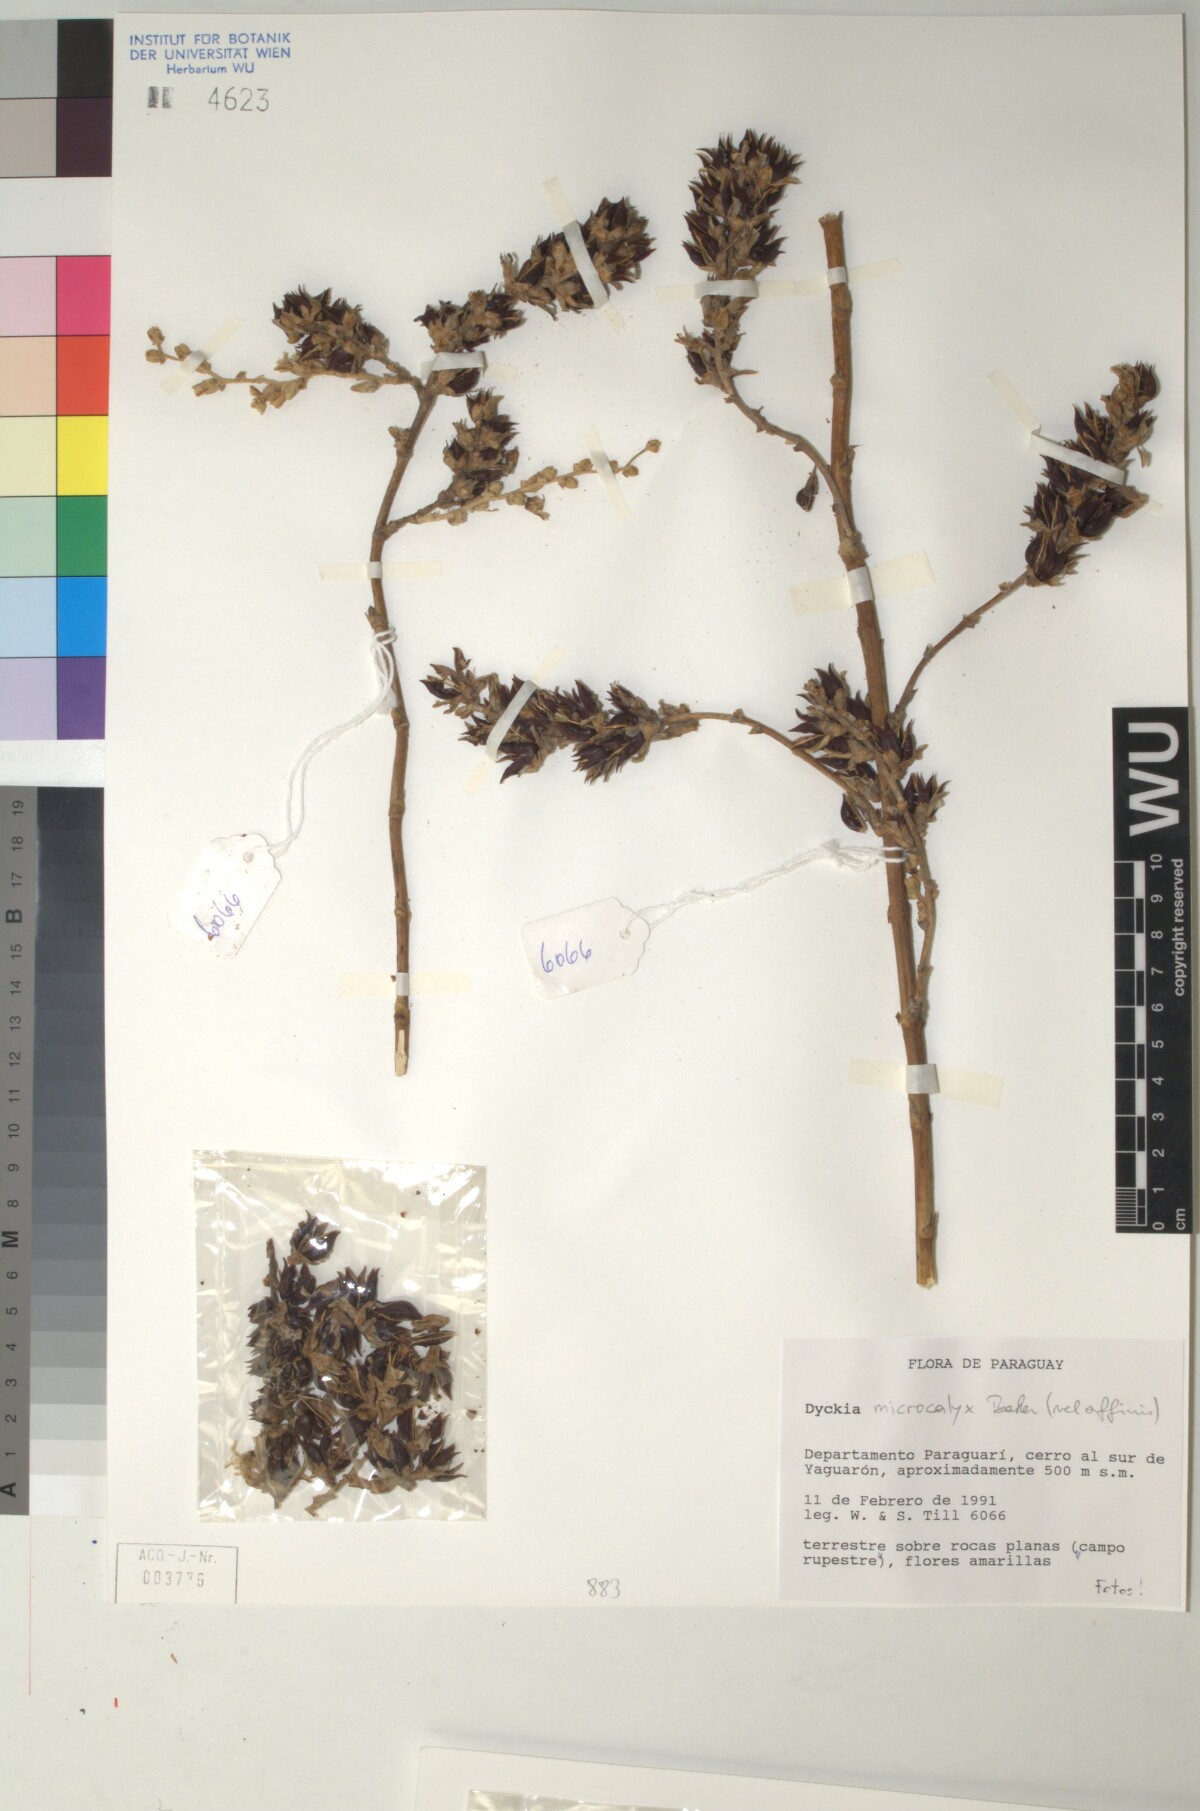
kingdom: Plantae
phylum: Tracheophyta
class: Liliopsida
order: Poales
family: Bromeliaceae
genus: Dyckia
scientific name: Dyckia microcalyx
